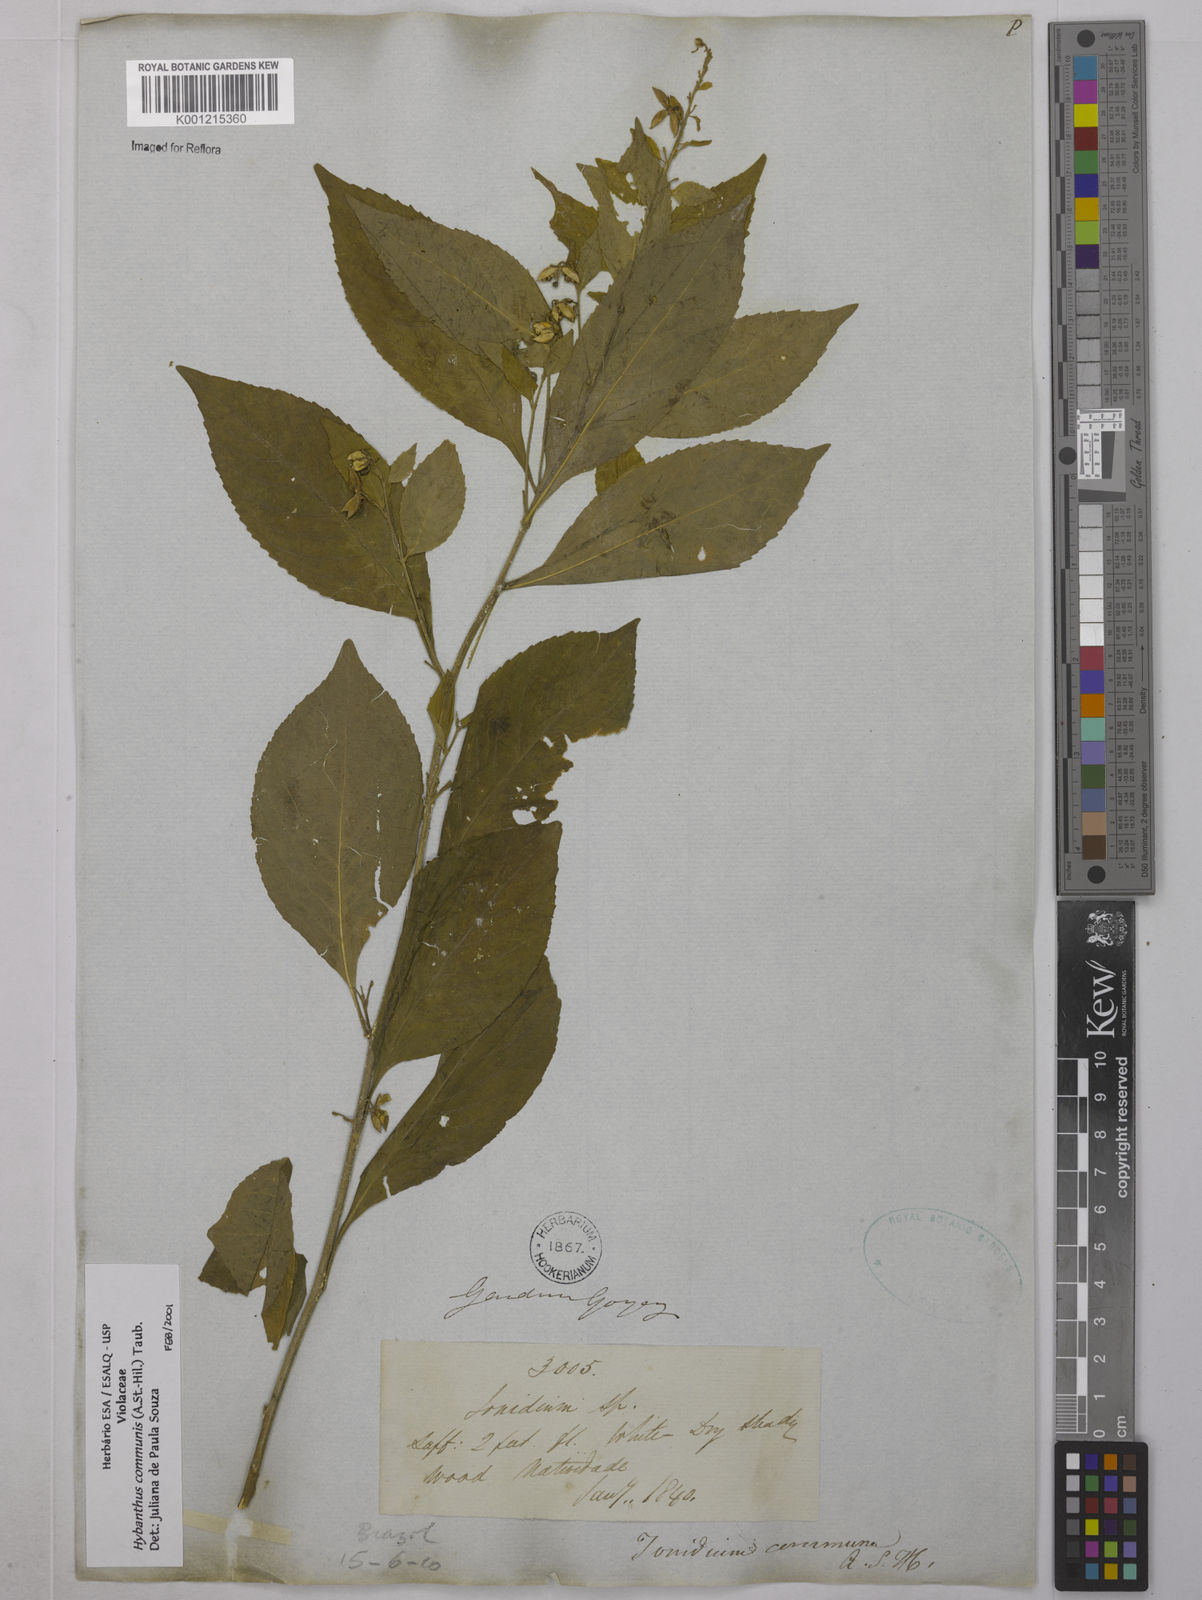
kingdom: Plantae
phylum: Tracheophyta
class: Magnoliopsida
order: Malpighiales
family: Violaceae
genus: Pombalia
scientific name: Pombalia communis
